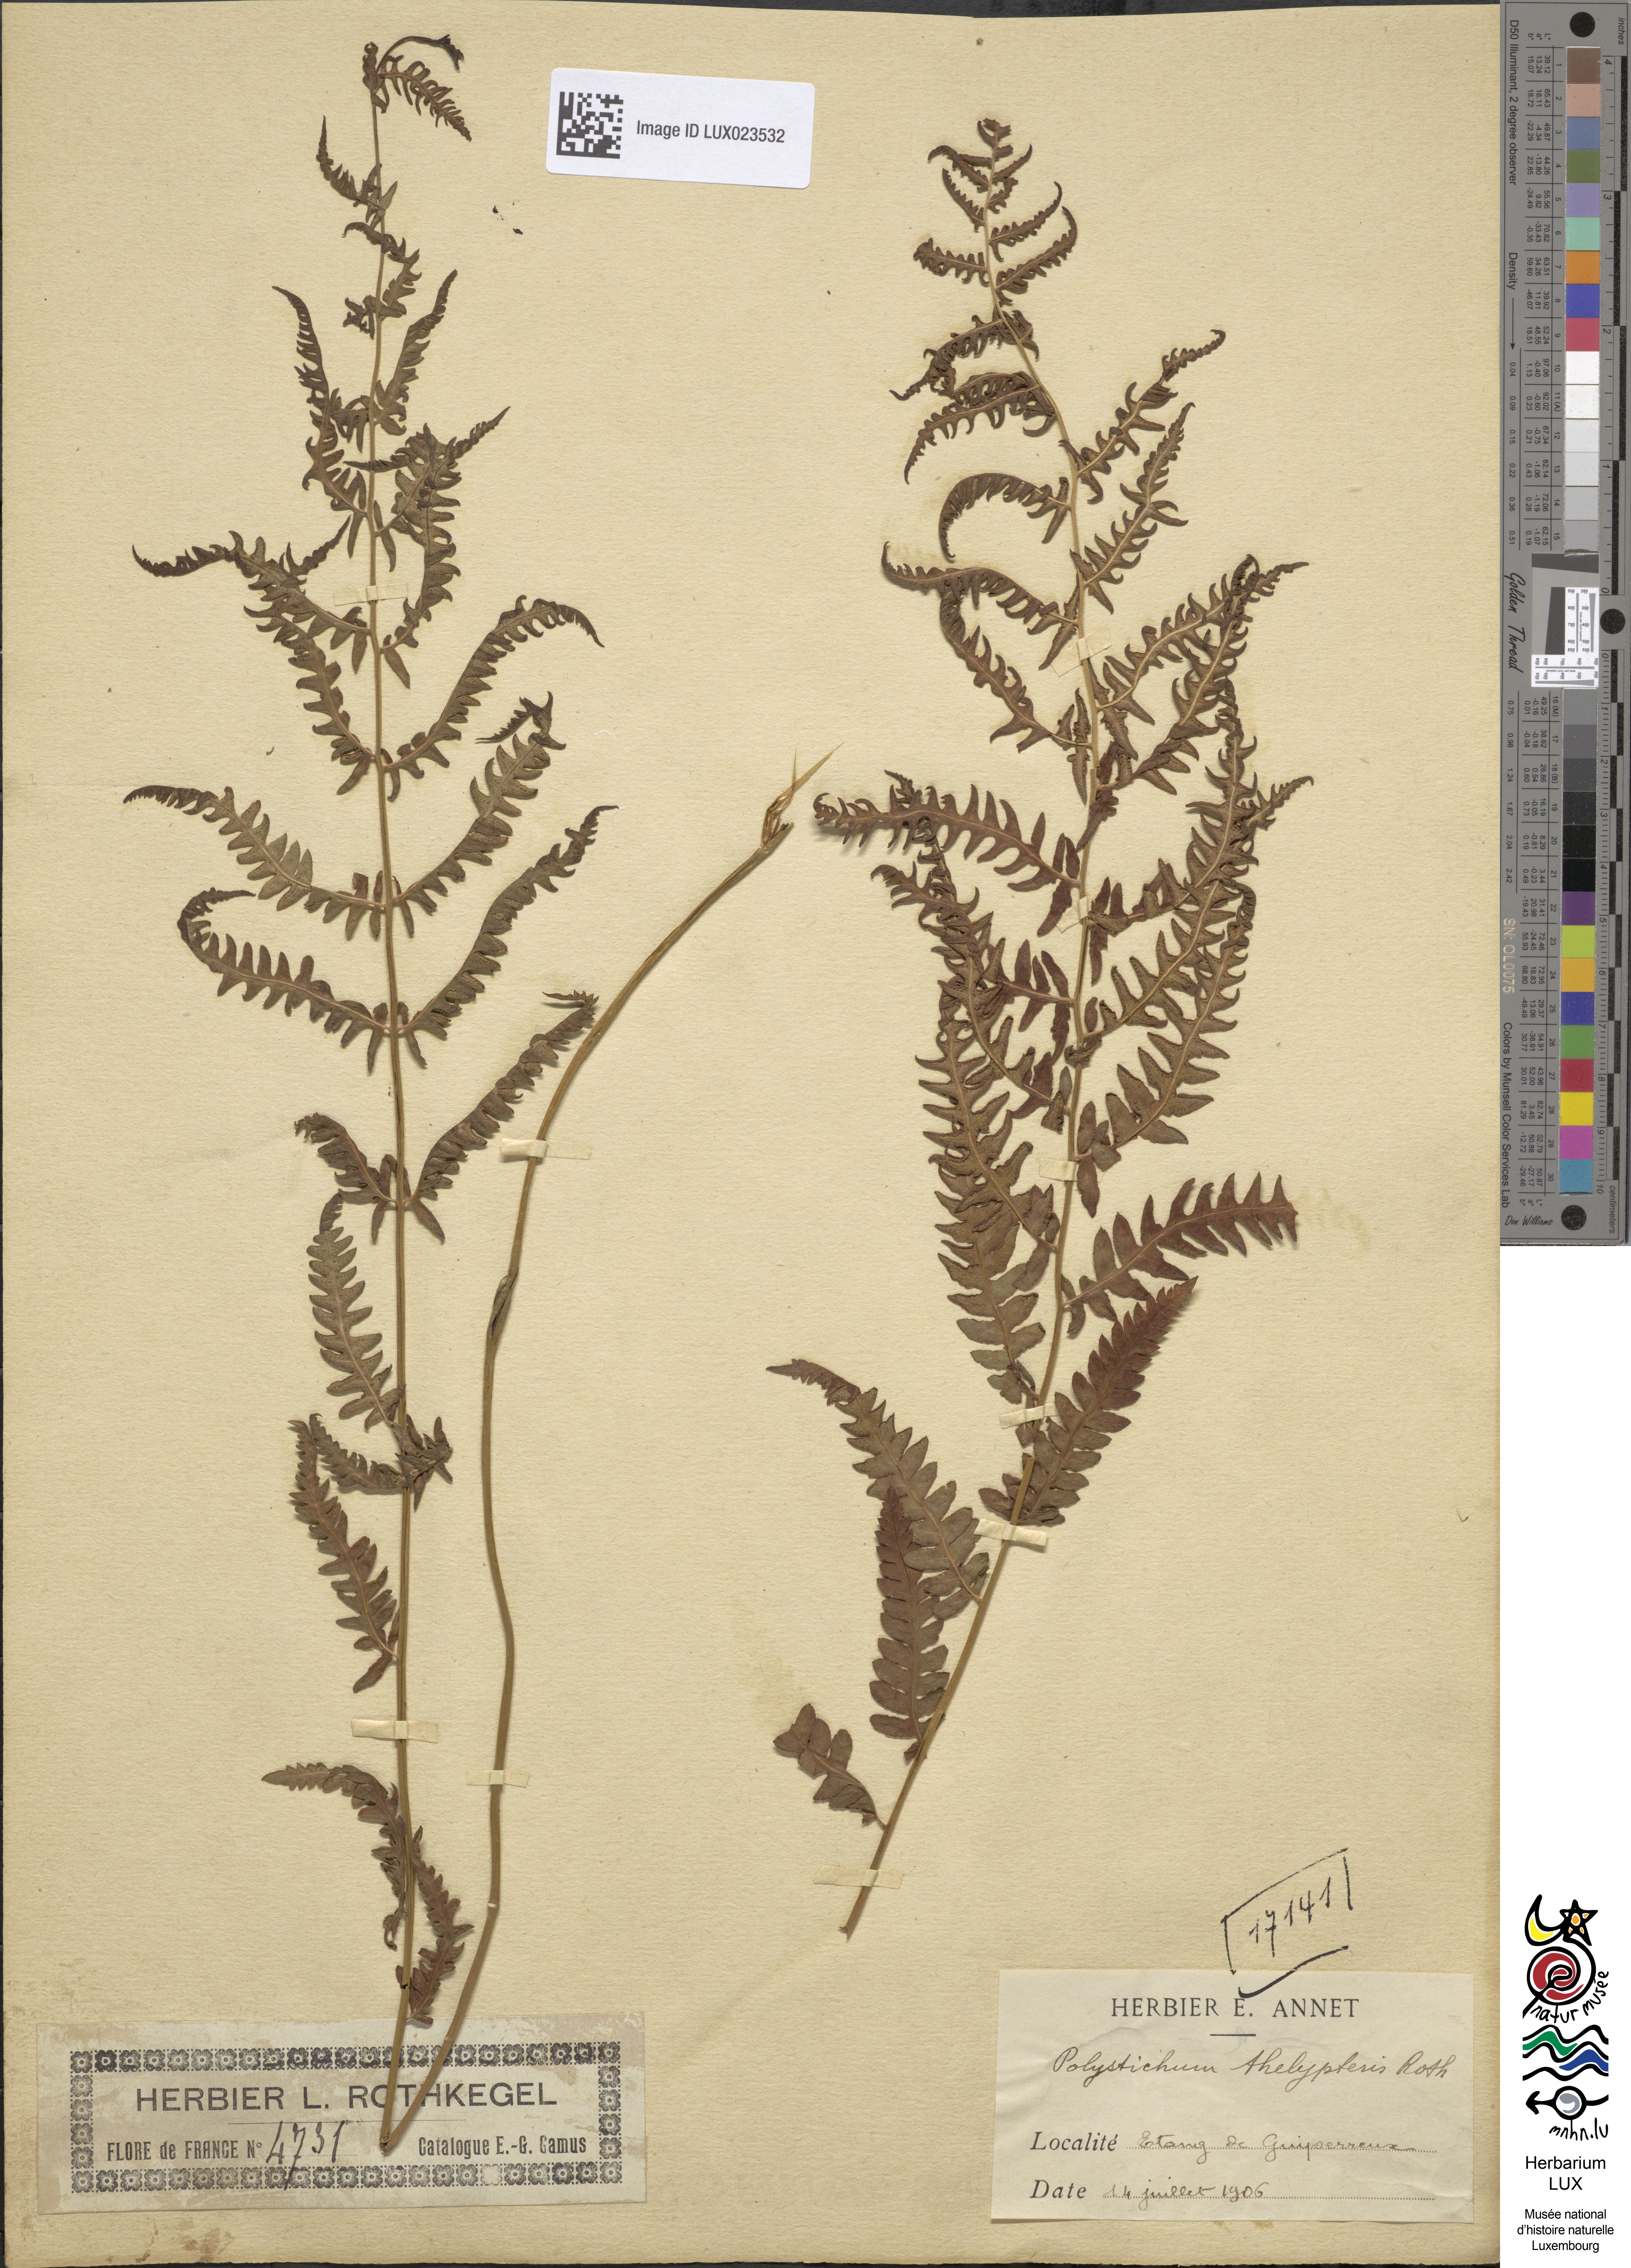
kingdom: Plantae
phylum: Tracheophyta
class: Polypodiopsida
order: Polypodiales
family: Thelypteridaceae
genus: Thelypteris
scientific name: Thelypteris palustris
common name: Marsh fern
